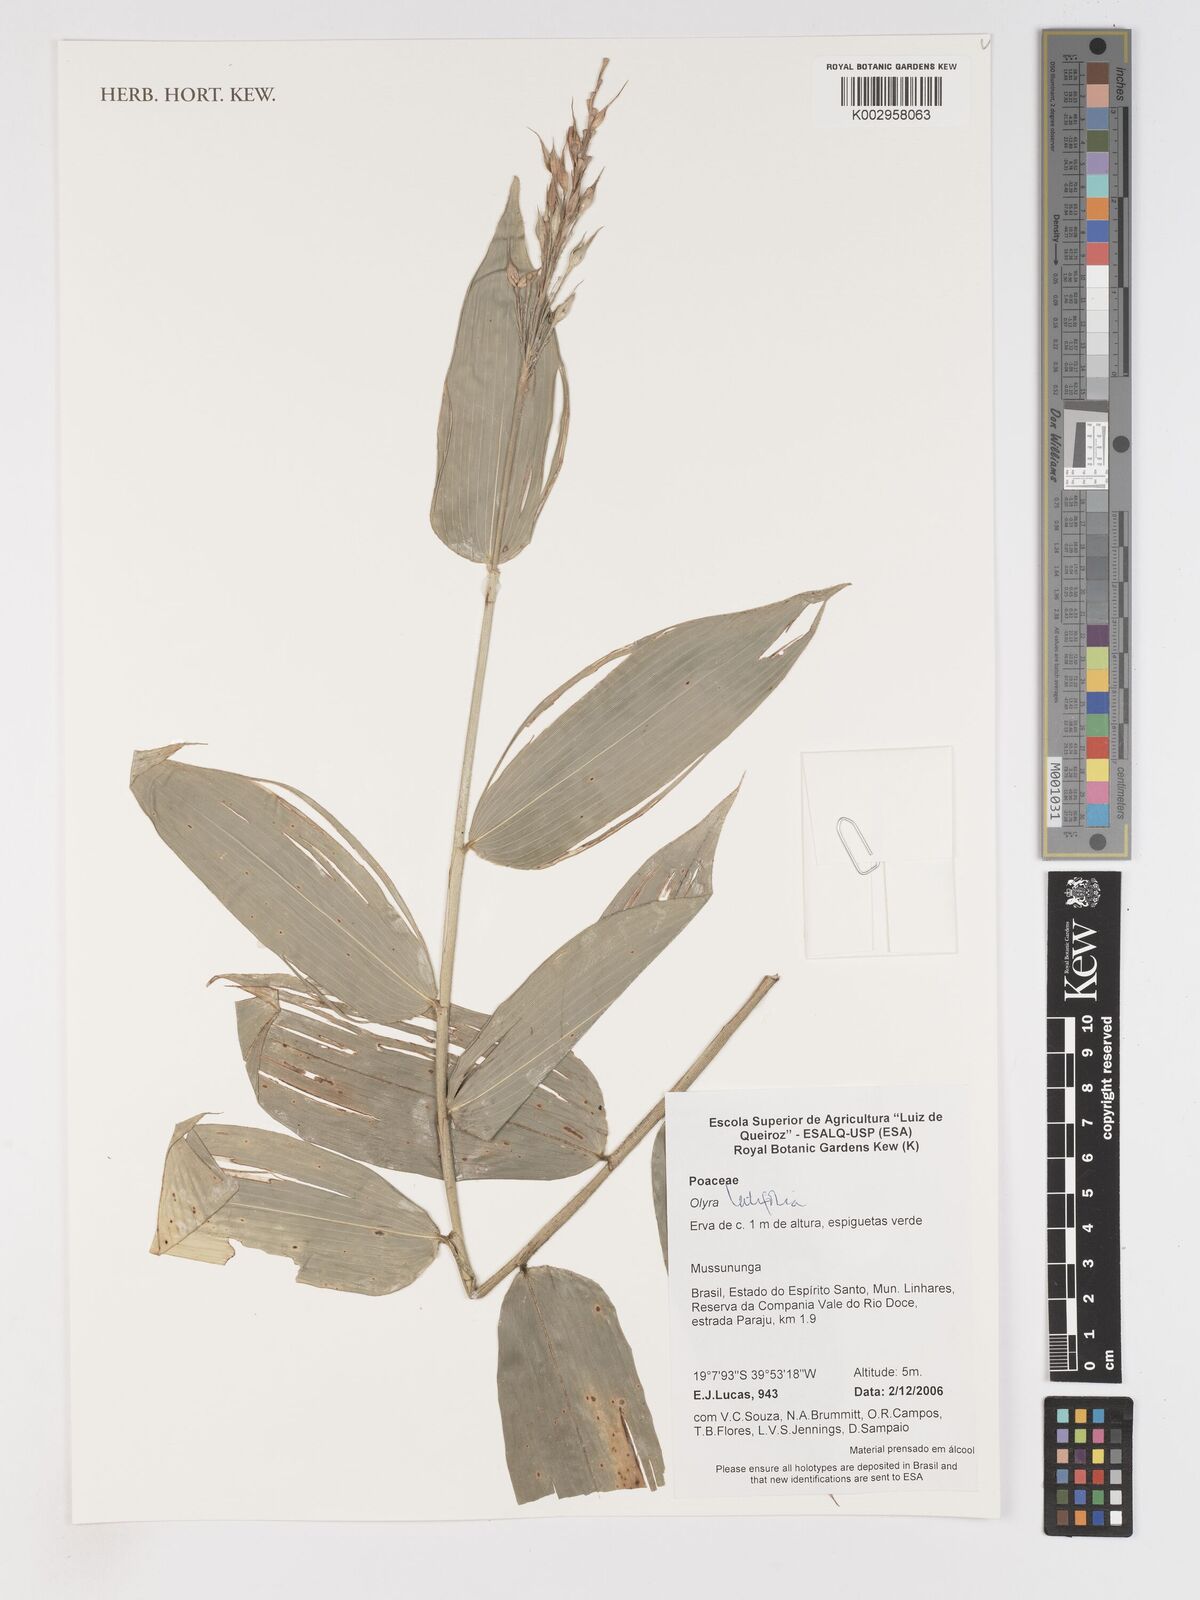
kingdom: Plantae
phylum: Tracheophyta
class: Liliopsida
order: Poales
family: Poaceae
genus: Olyra
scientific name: Olyra latifolia
